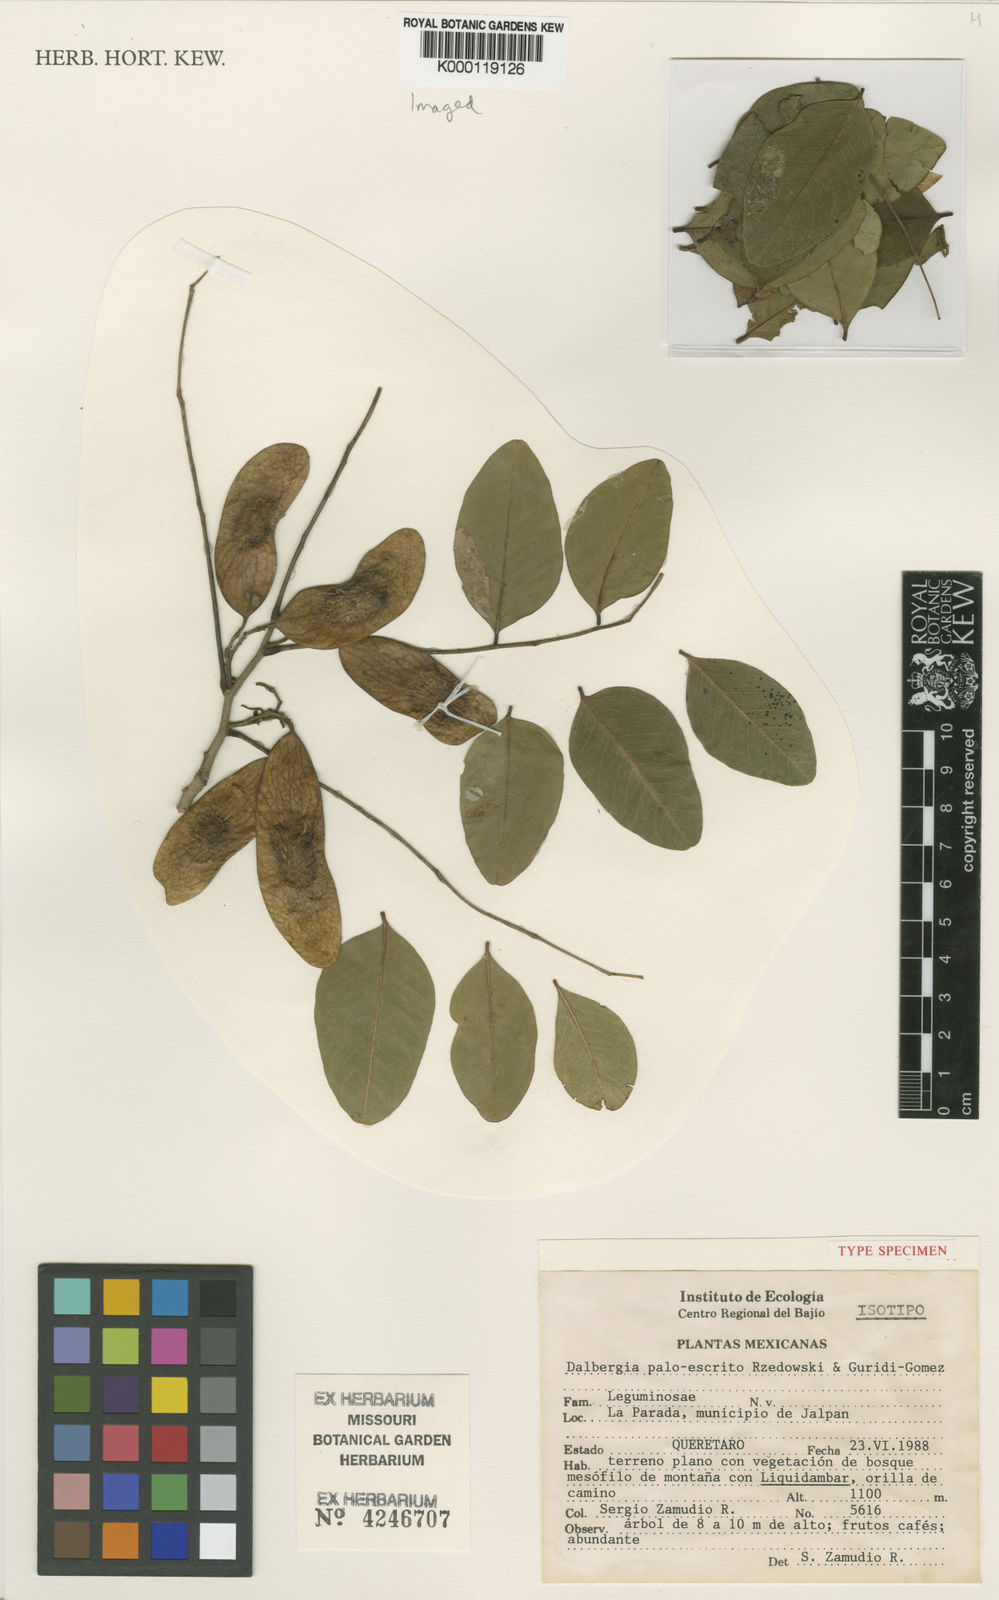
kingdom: Plantae
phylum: Tracheophyta
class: Magnoliopsida
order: Fabales
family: Fabaceae
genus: Dalbergia
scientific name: Dalbergia
